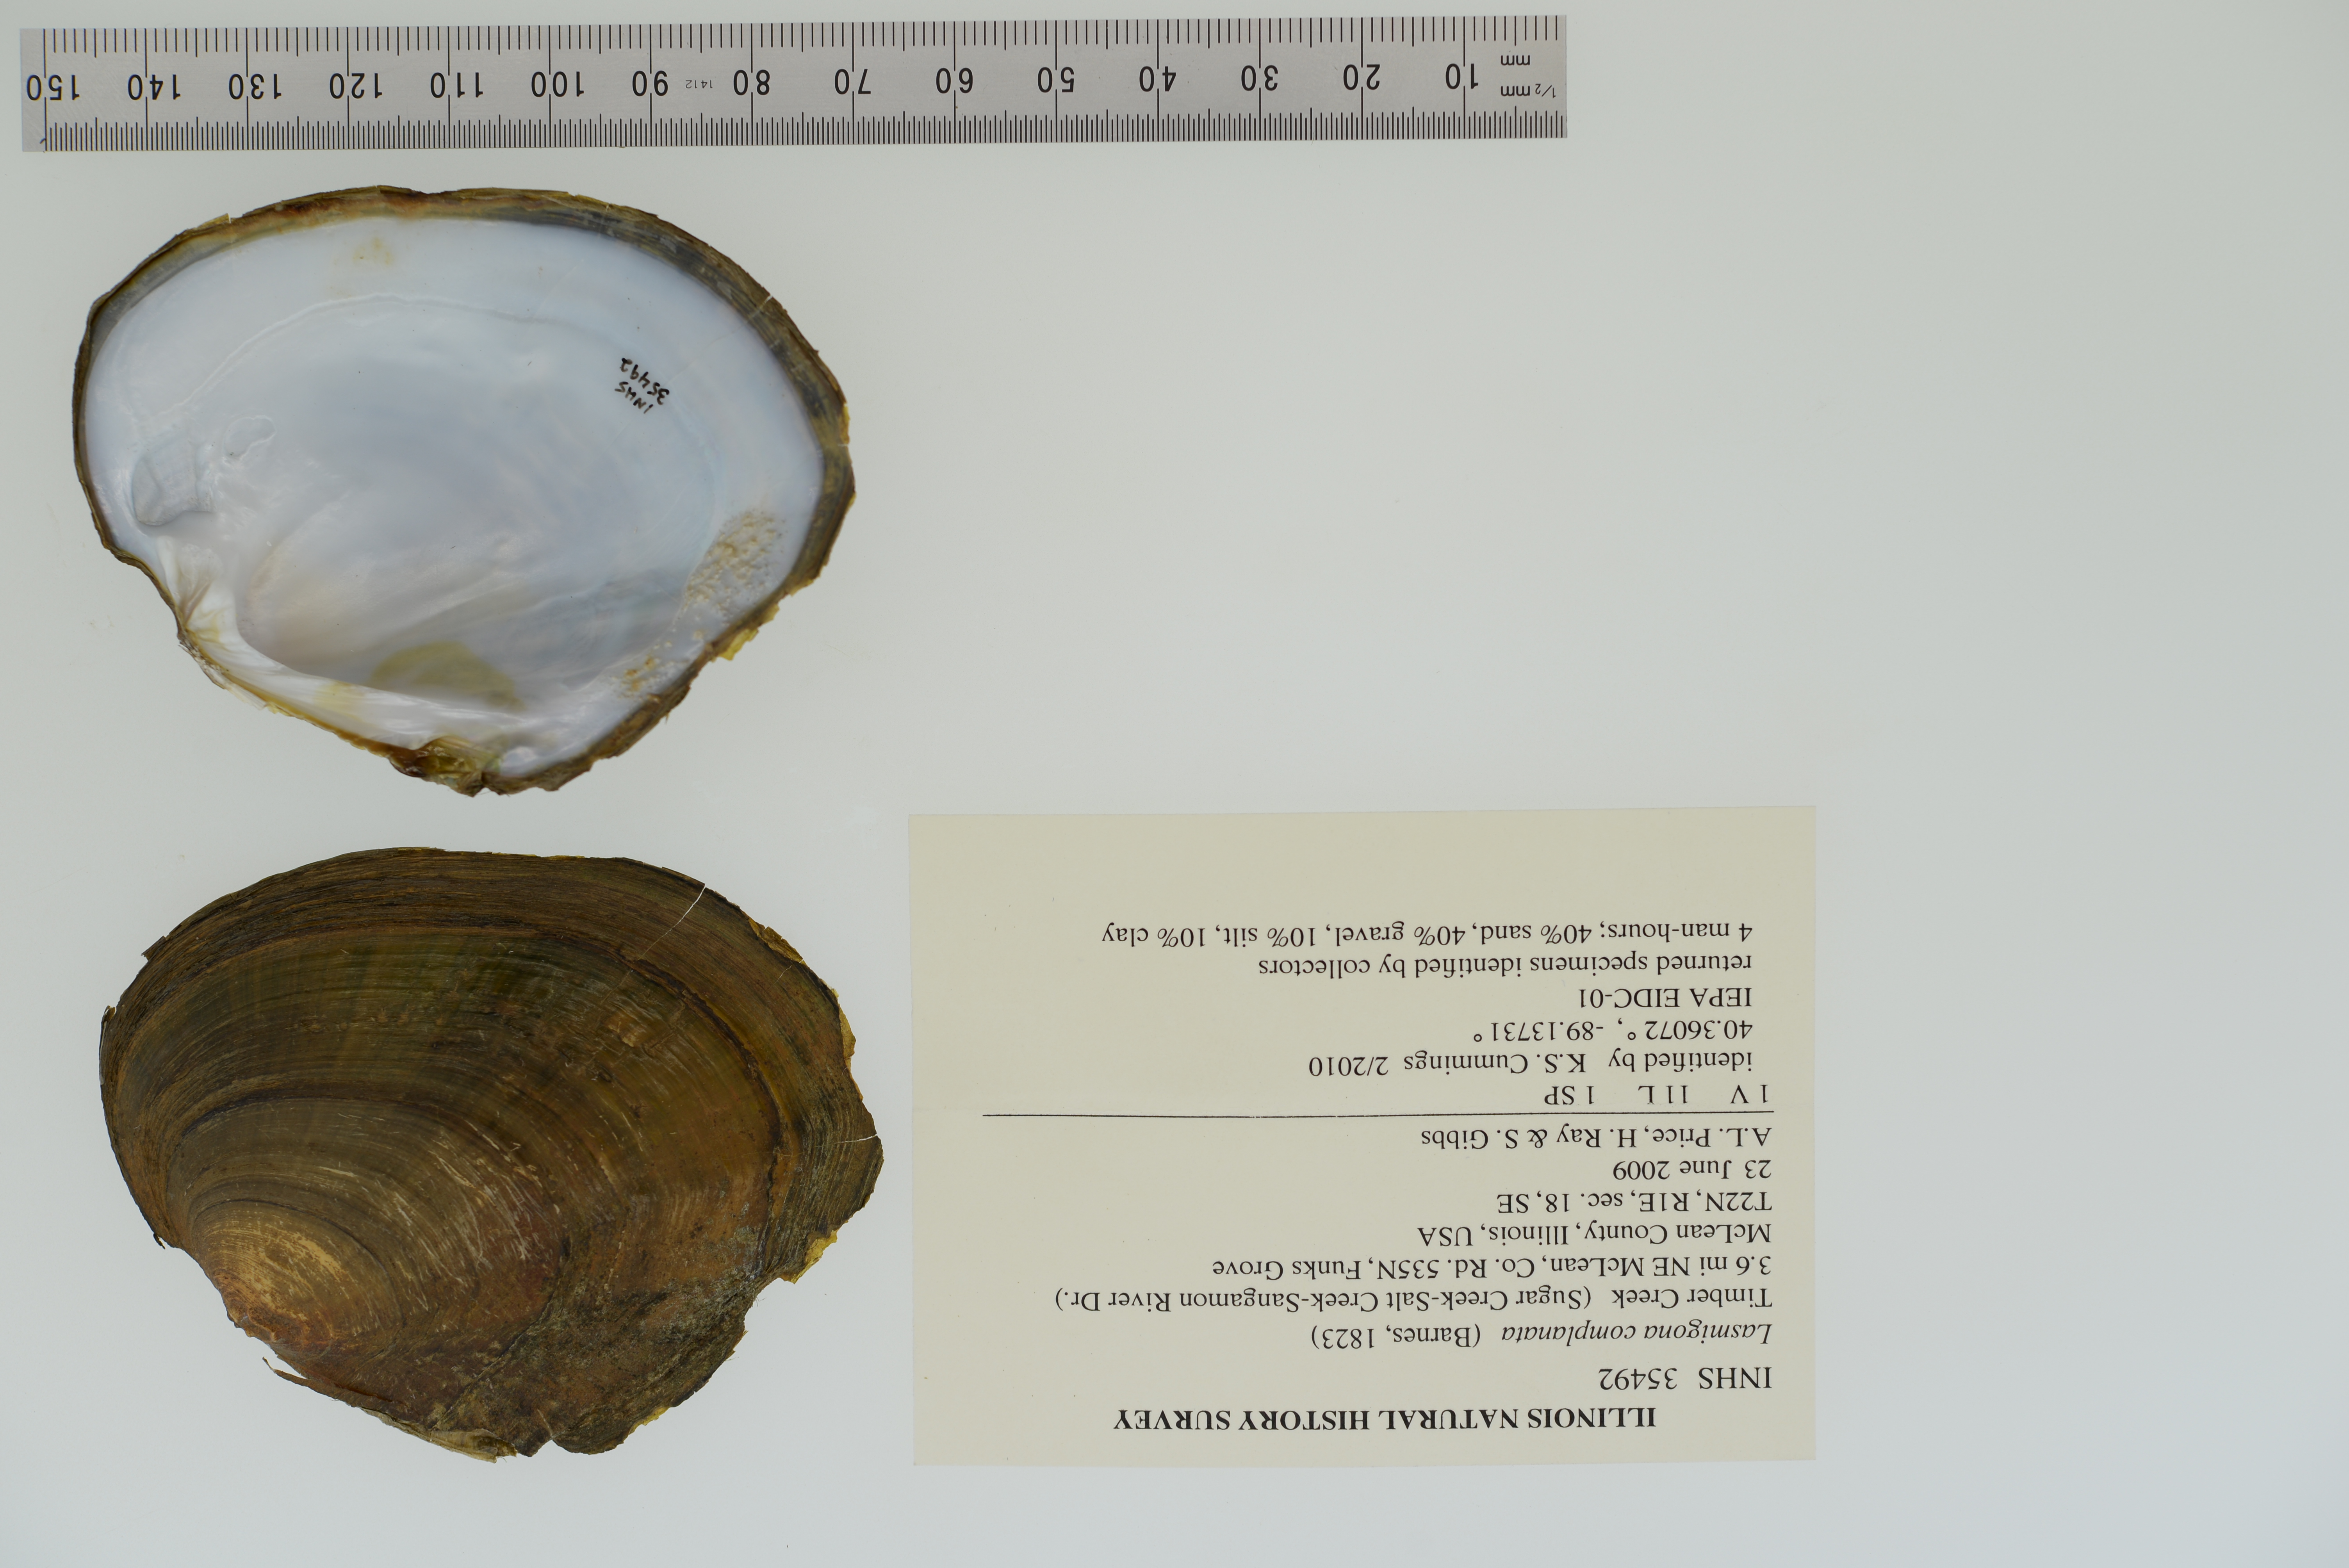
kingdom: Animalia
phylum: Mollusca
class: Bivalvia
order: Unionida
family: Unionidae
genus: Lasmigona
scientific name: Lasmigona complanata
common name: White heelsplitter
